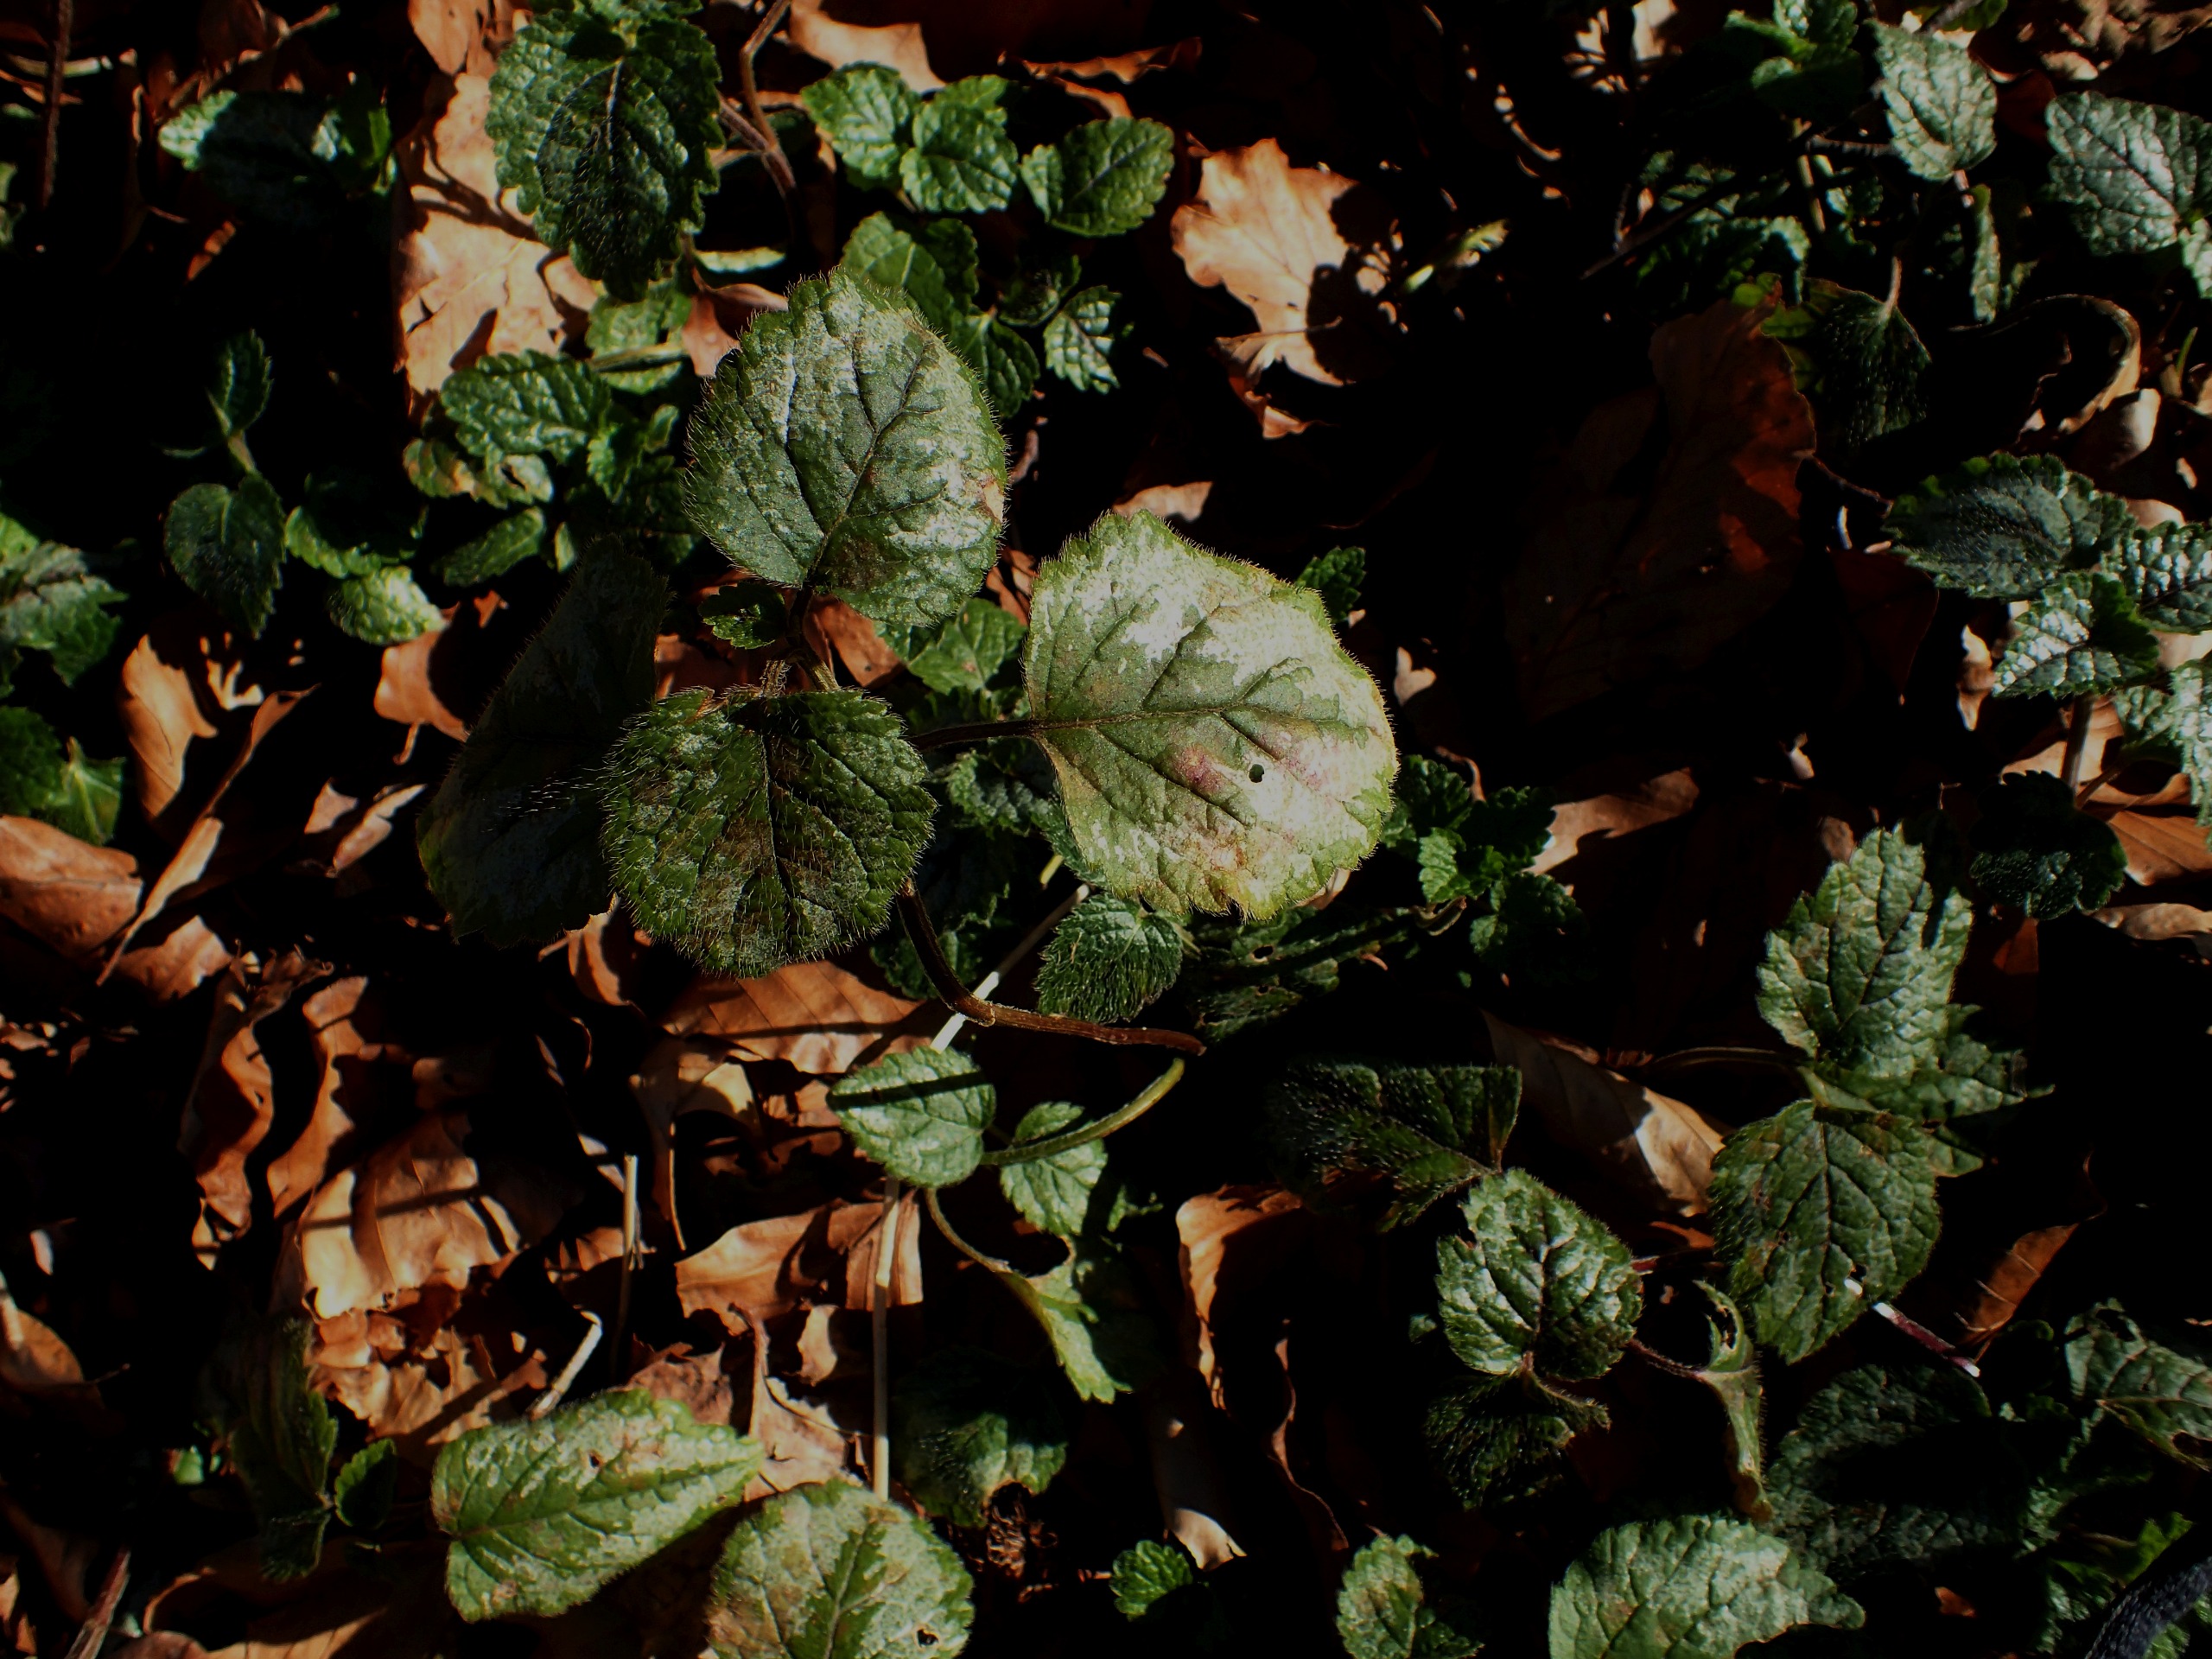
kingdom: Plantae
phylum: Tracheophyta
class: Magnoliopsida
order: Lamiales
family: Lamiaceae
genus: Lamium
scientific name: Lamium galeobdolon
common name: Have-guldnælde
